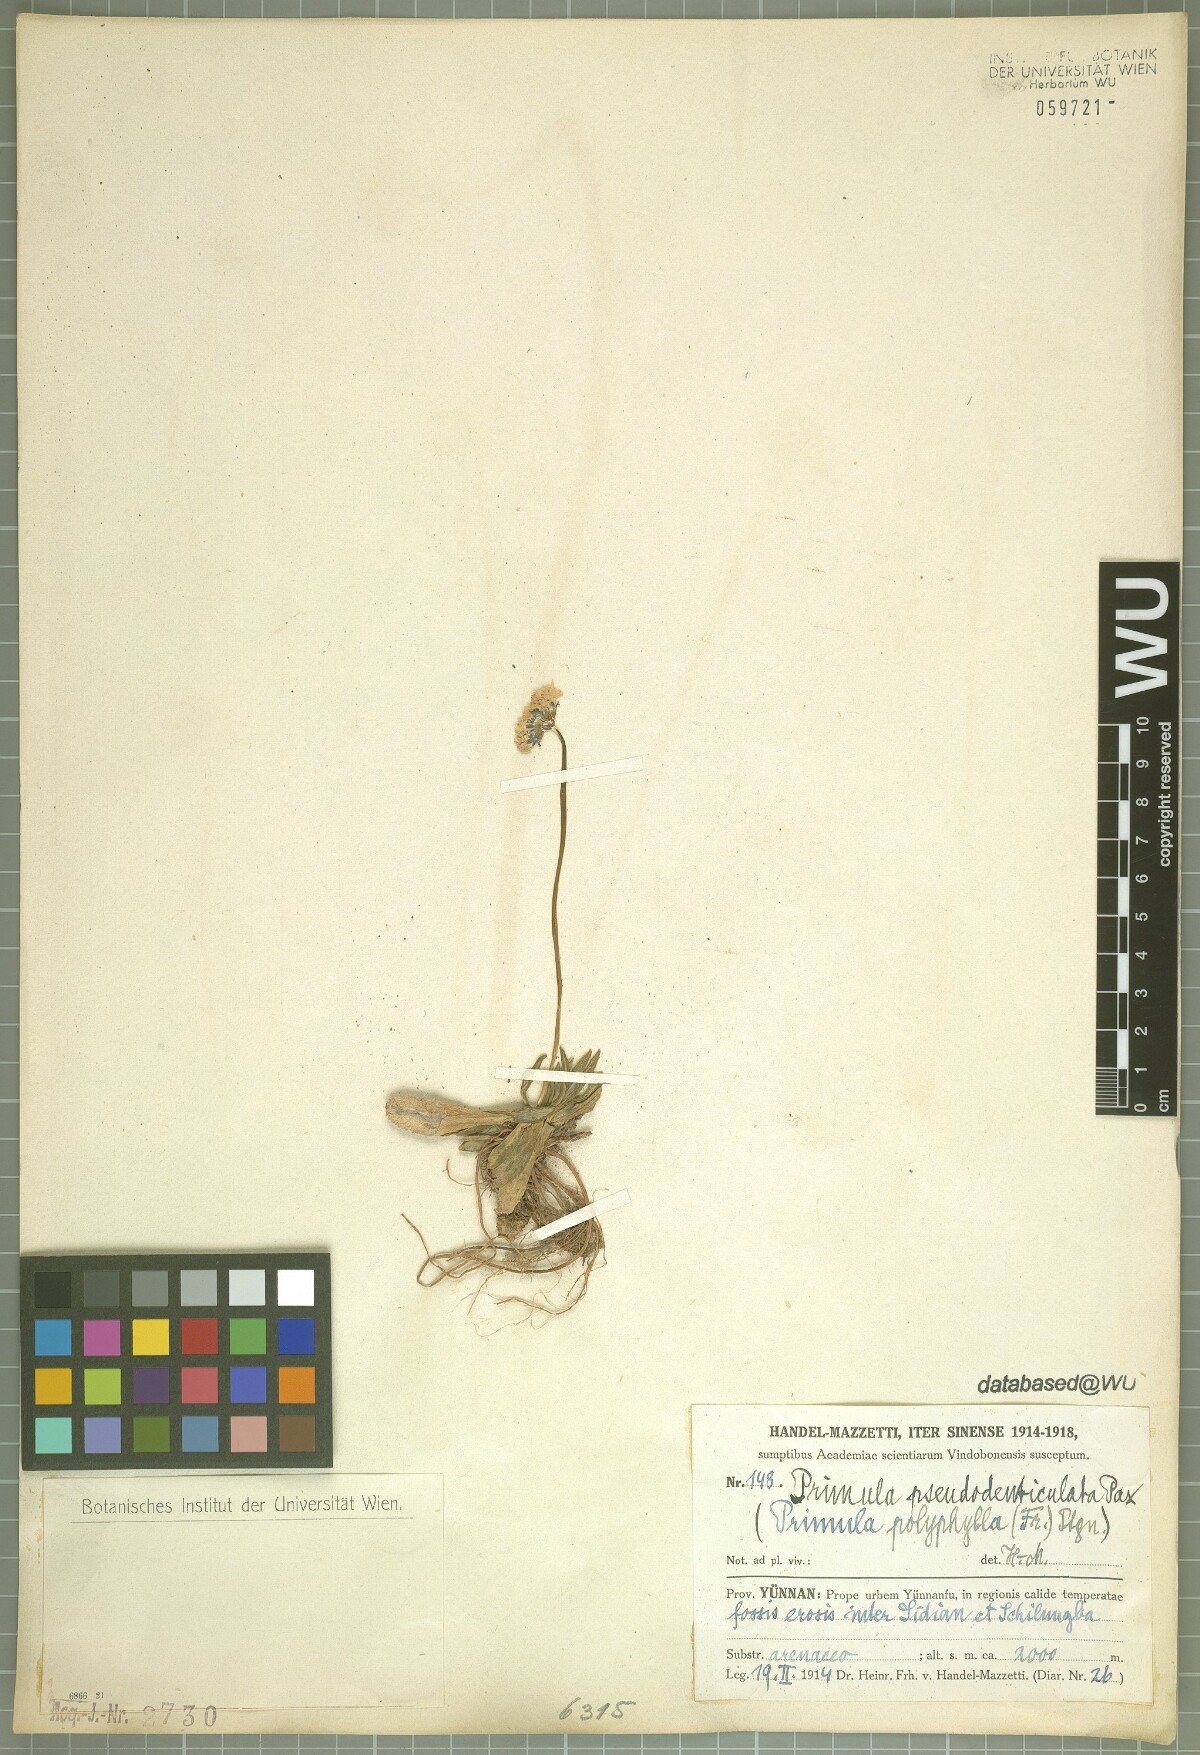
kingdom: Plantae
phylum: Tracheophyta
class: Magnoliopsida
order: Ericales
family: Primulaceae
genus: Primula
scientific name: Primula pseudodenticulata
